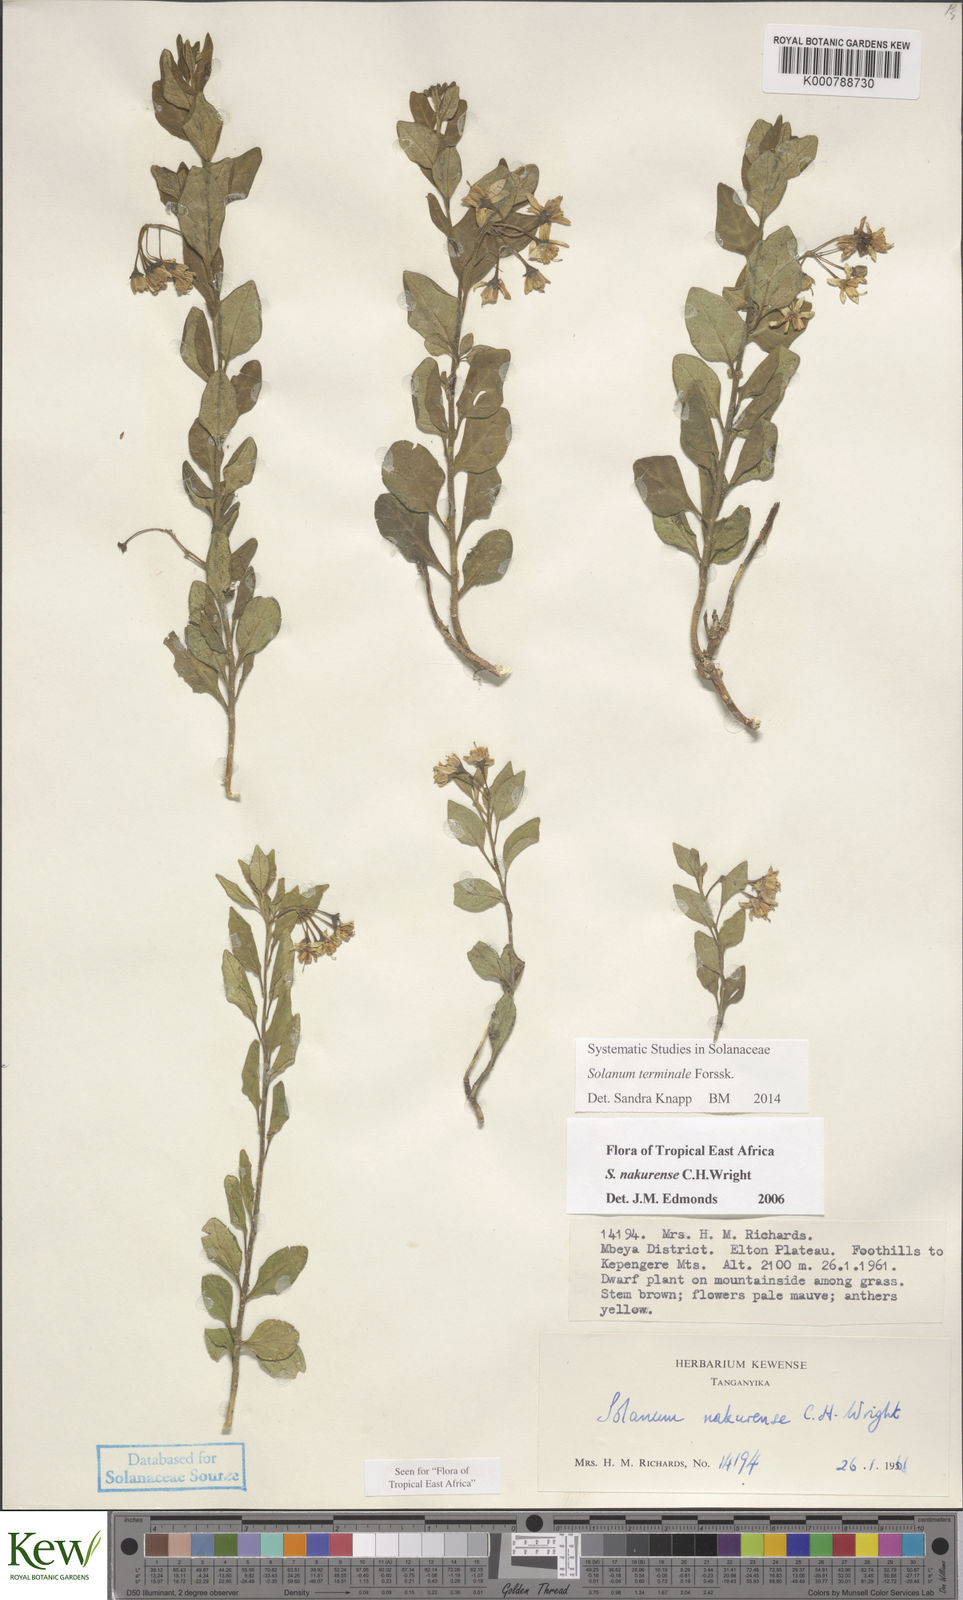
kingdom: Plantae
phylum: Tracheophyta
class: Magnoliopsida
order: Solanales
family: Solanaceae
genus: Solanum
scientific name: Solanum terminale
